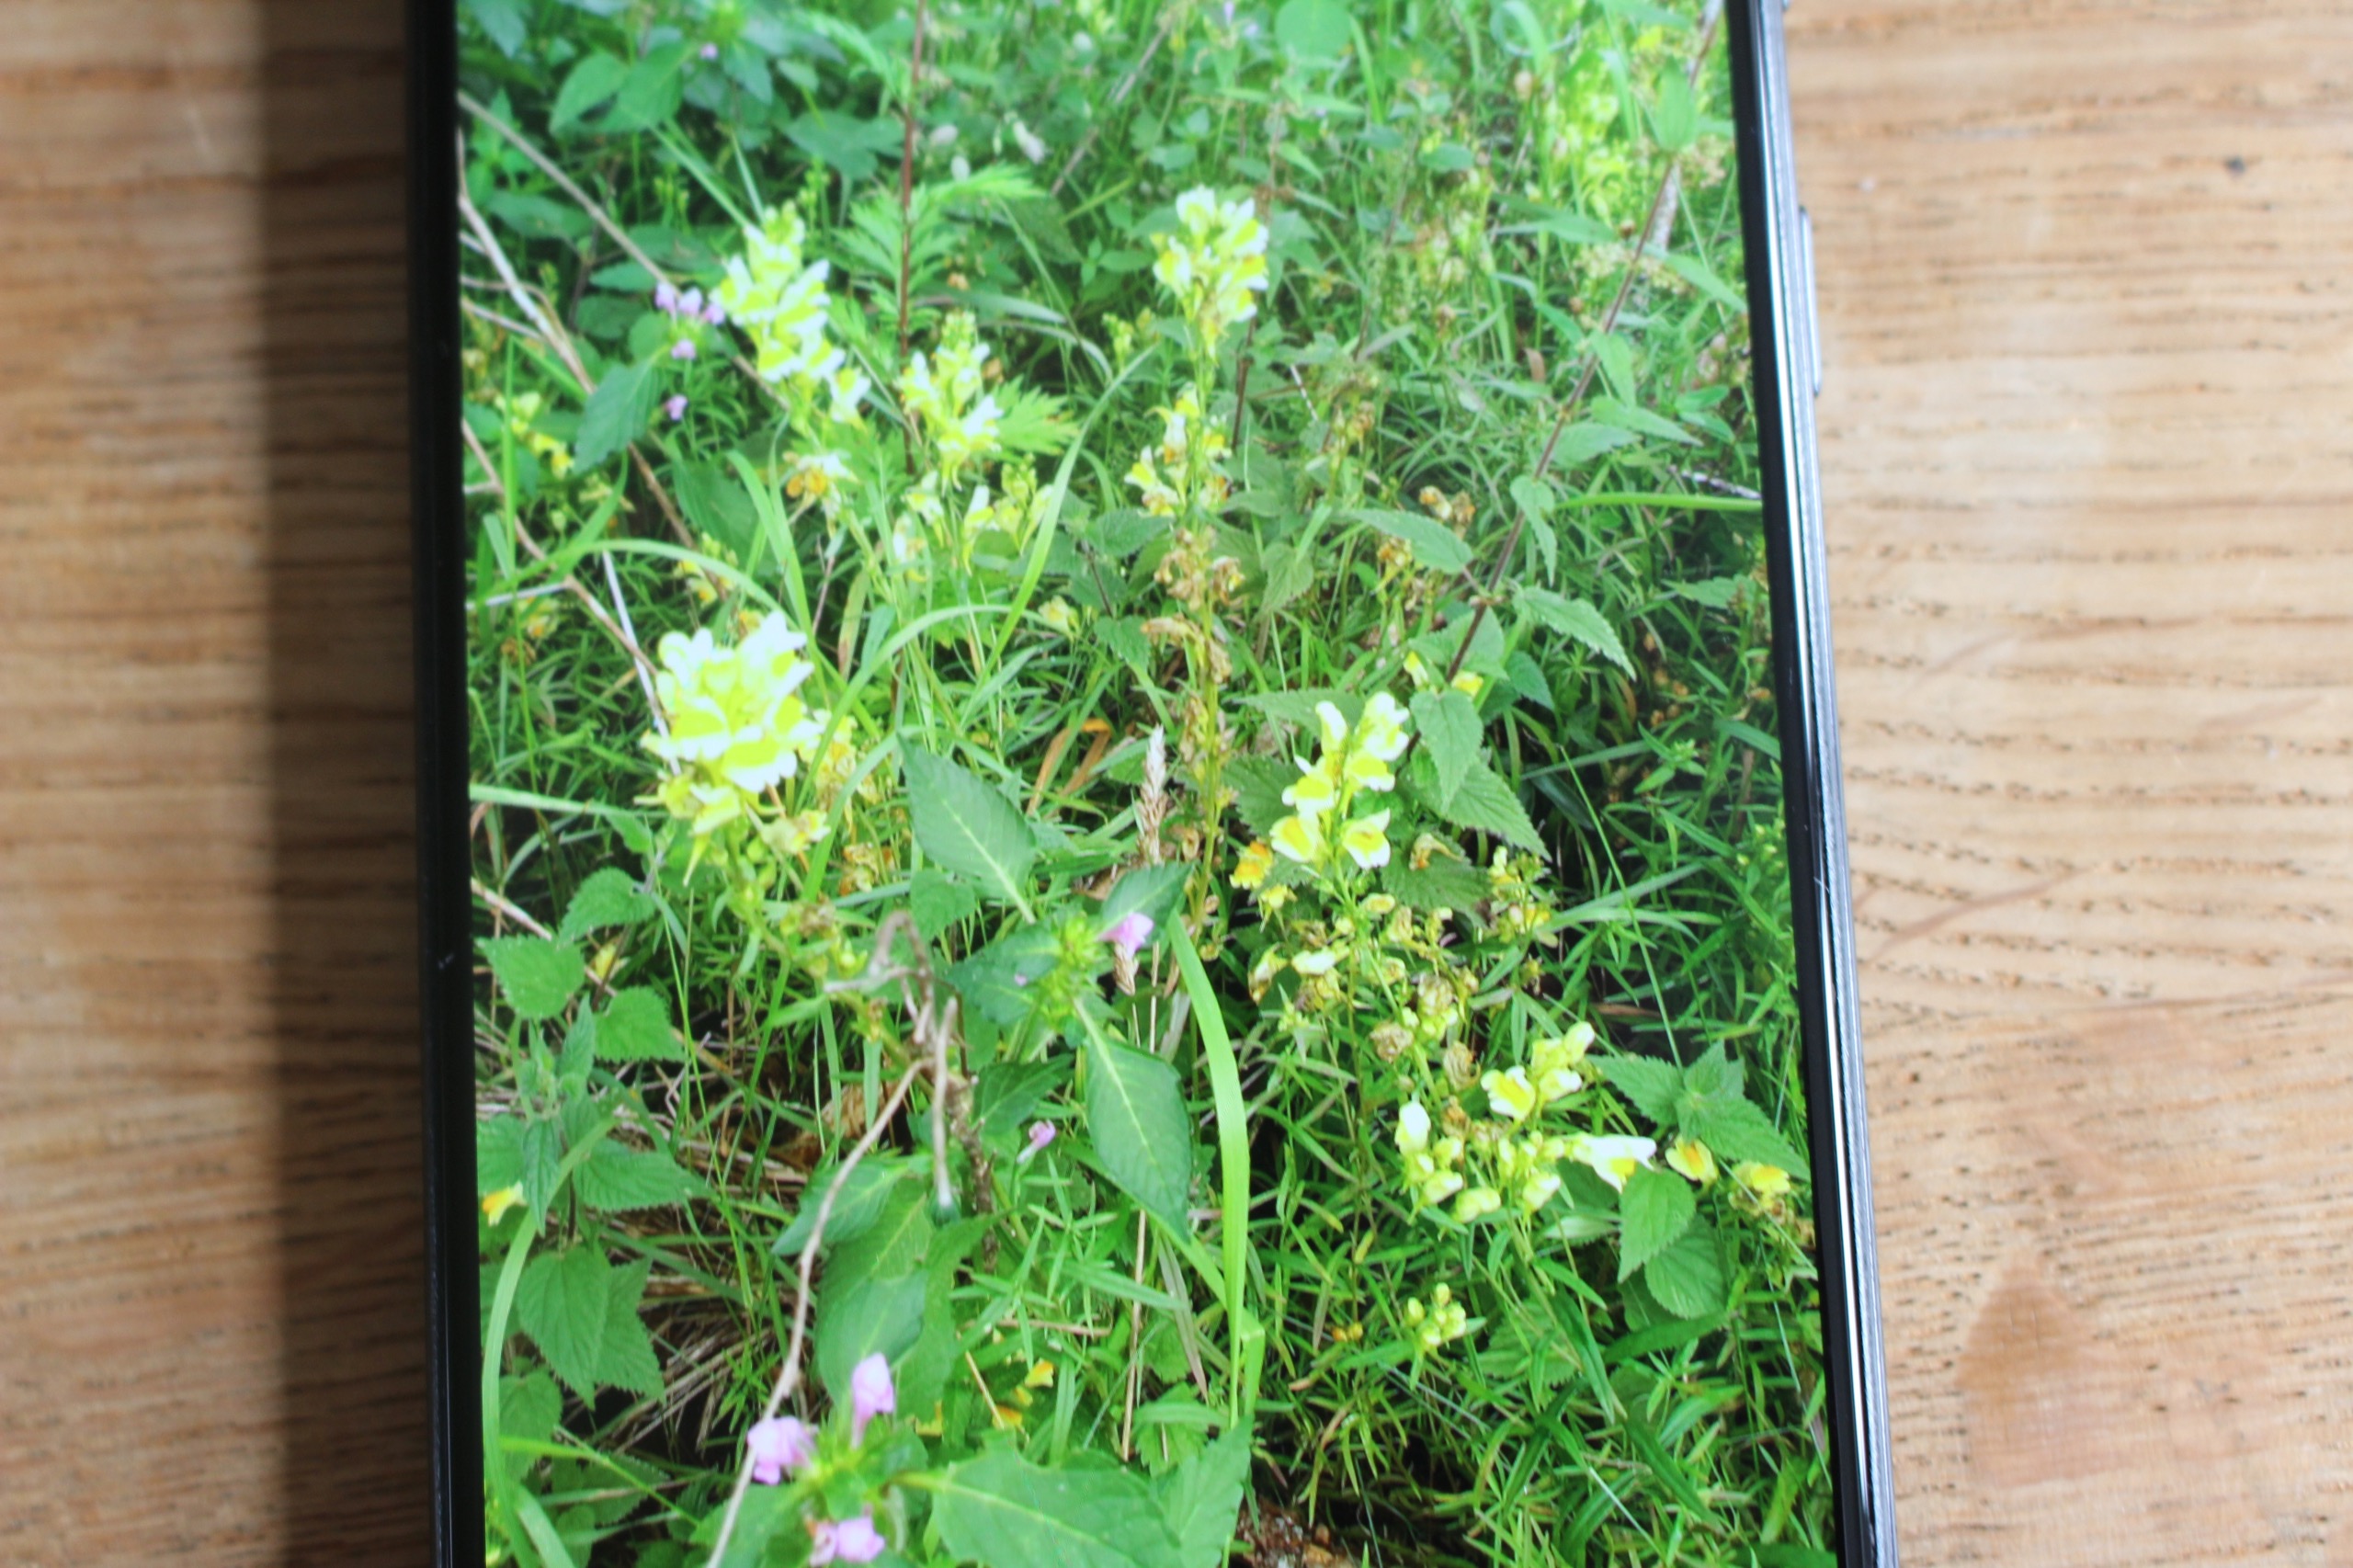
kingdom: Plantae
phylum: Tracheophyta
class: Magnoliopsida
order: Lamiales
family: Plantaginaceae
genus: Linaria
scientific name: Linaria vulgaris
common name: Almindelig torskemund
